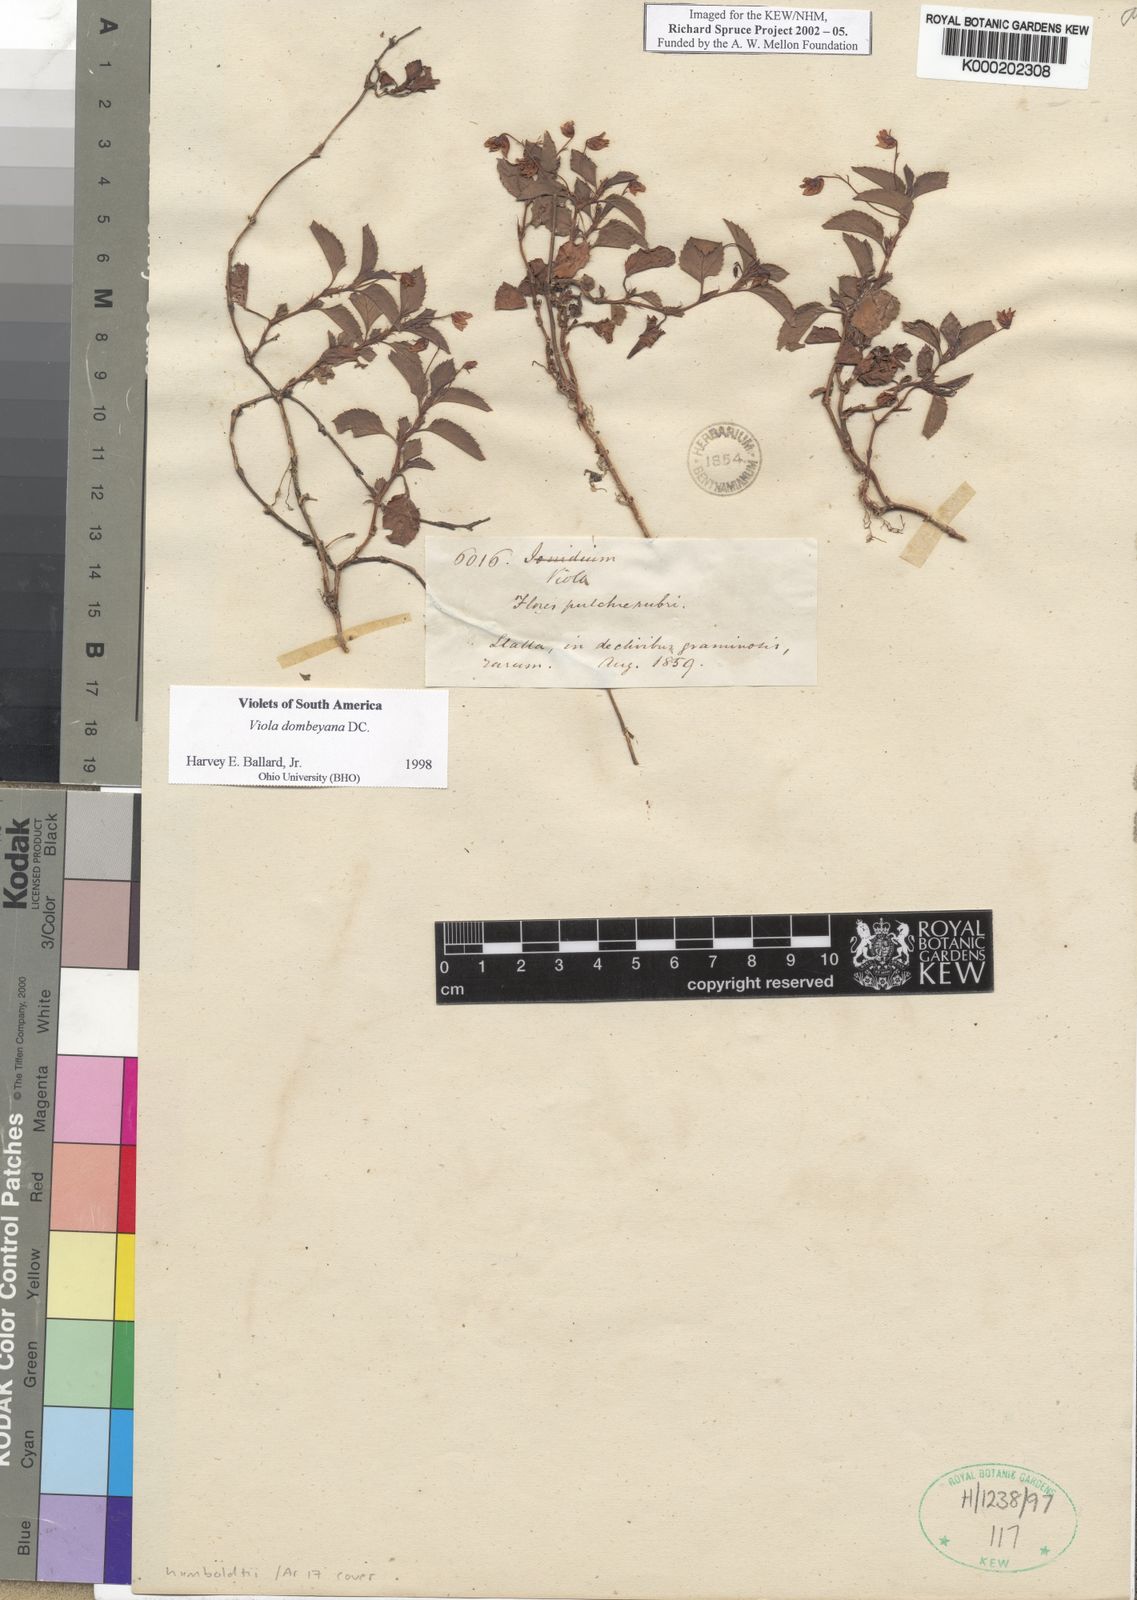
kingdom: Plantae
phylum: Tracheophyta
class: Magnoliopsida
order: Malpighiales
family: Violaceae
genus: Viola
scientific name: Viola
